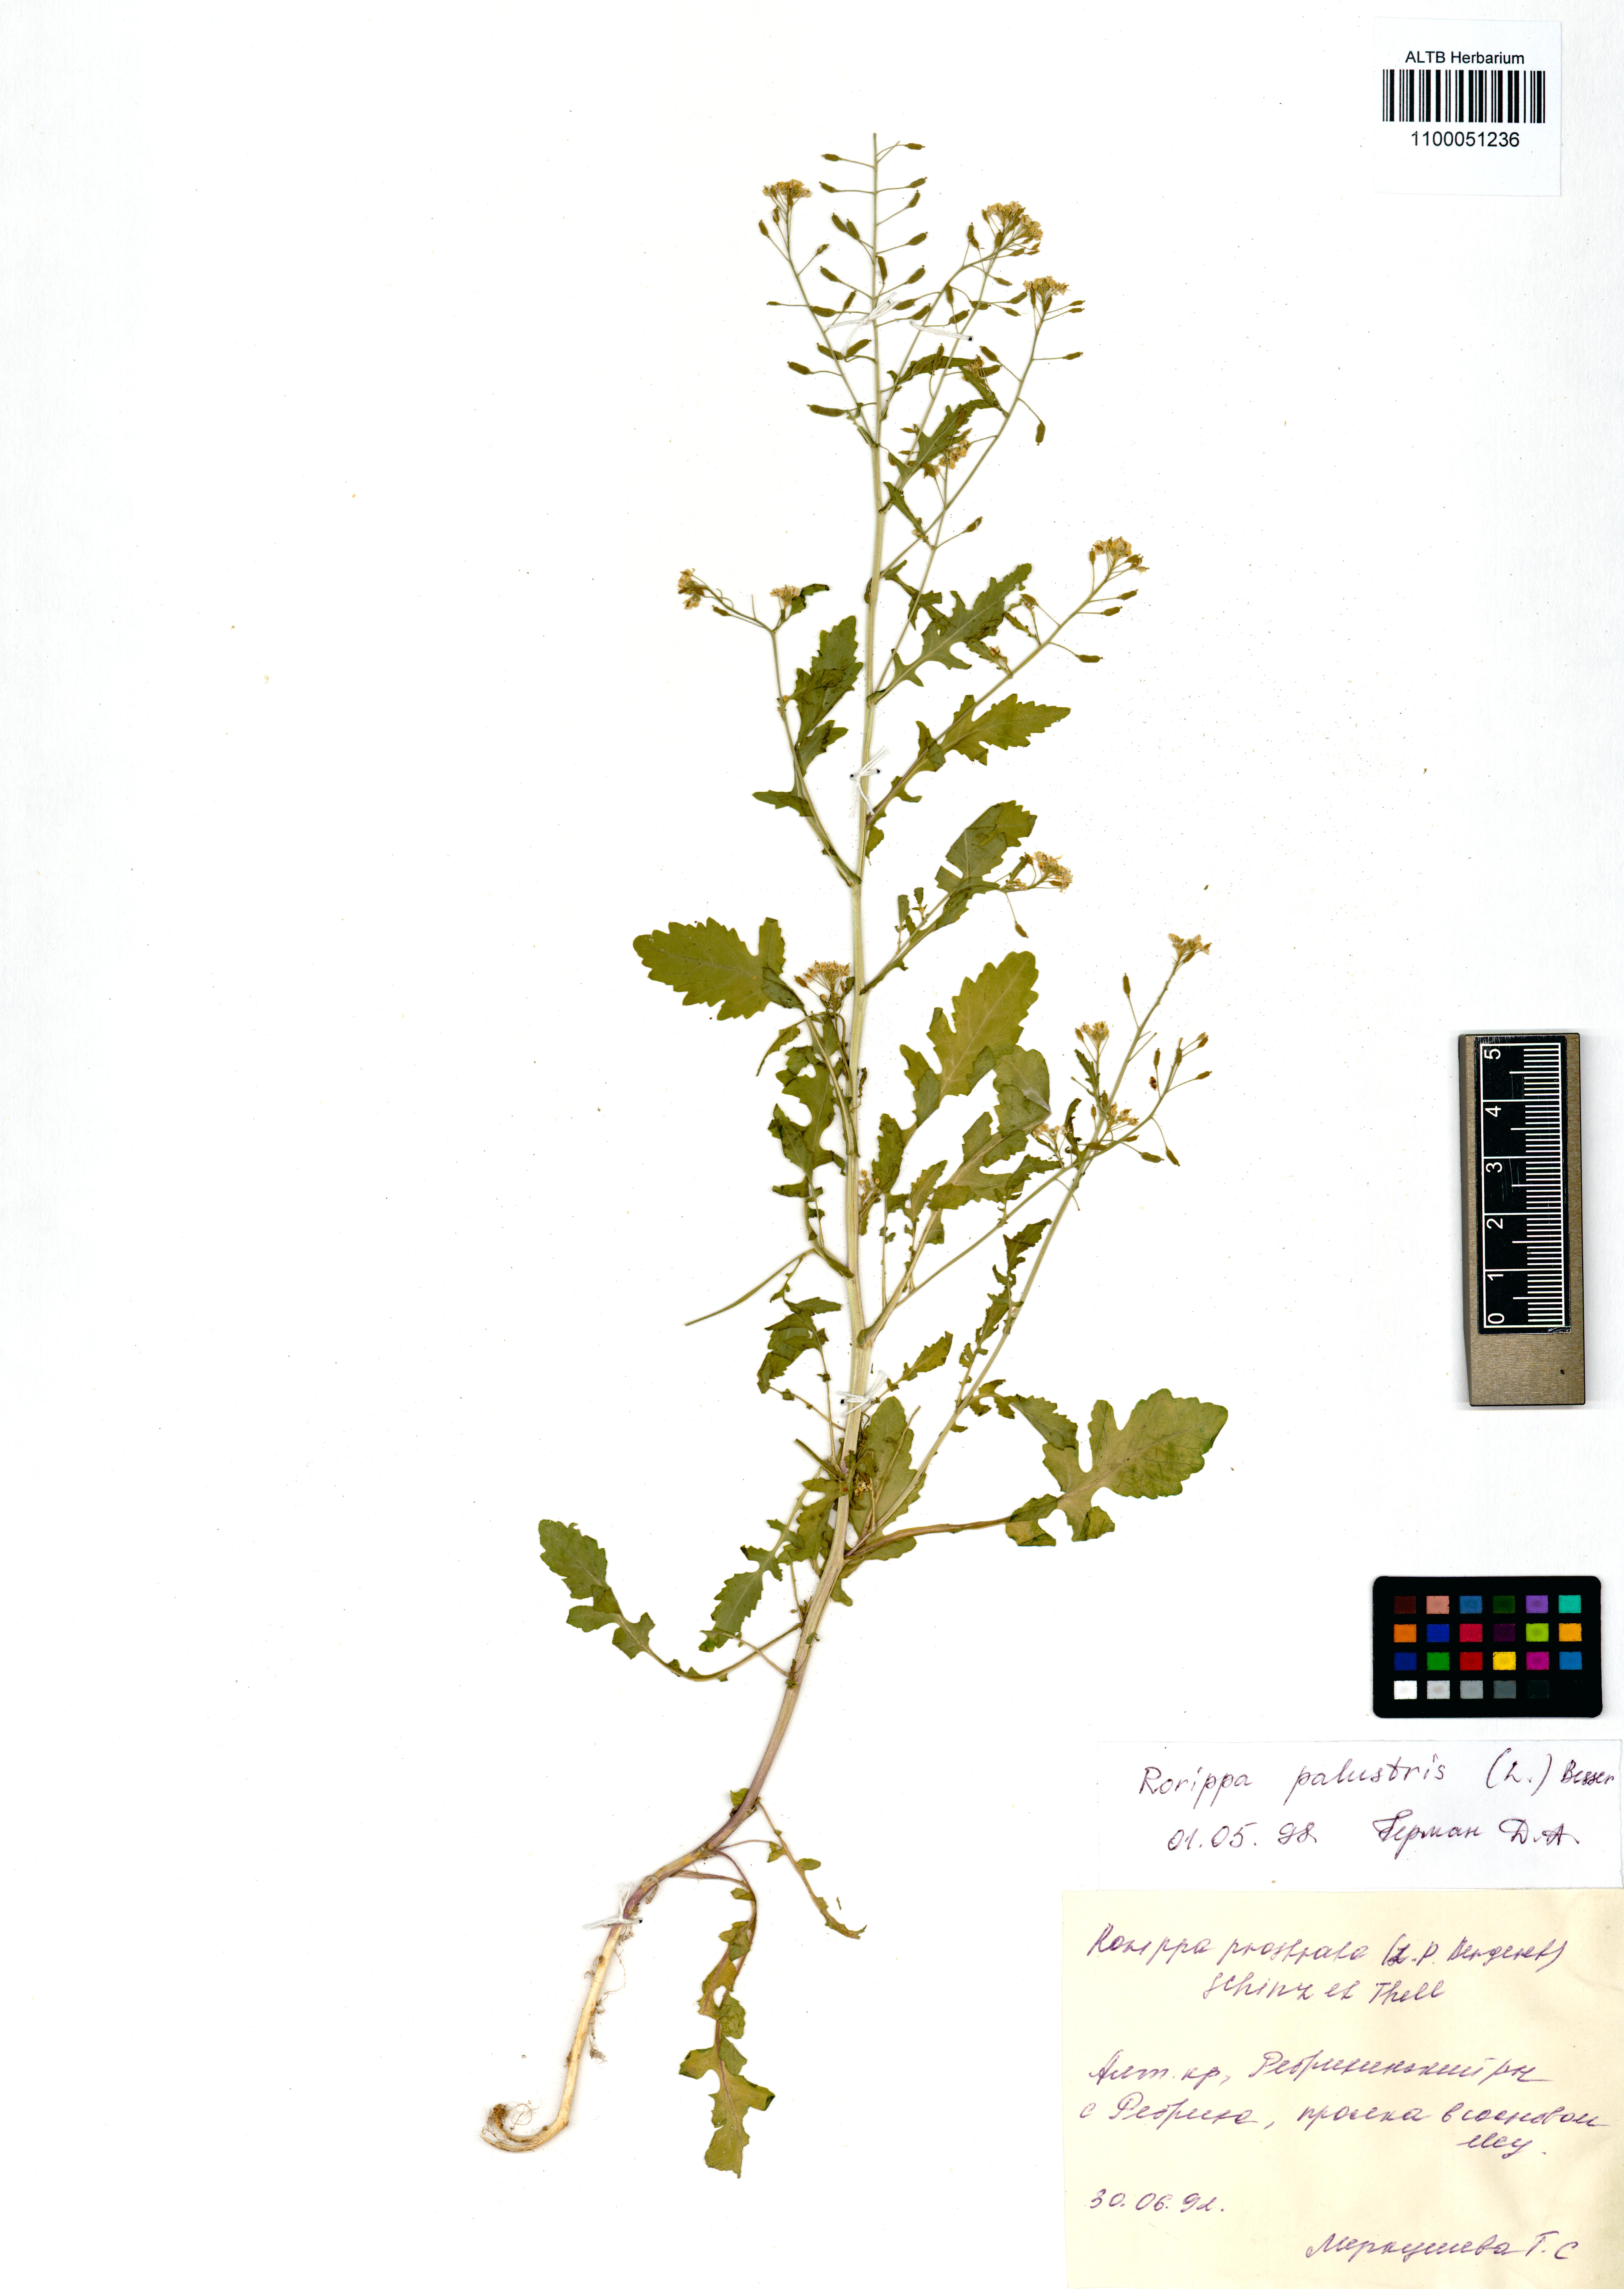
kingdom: Plantae
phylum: Tracheophyta
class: Magnoliopsida
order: Brassicales
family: Brassicaceae
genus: Rorippa
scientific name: Rorippa palustris
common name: Marsh yellow-cress
